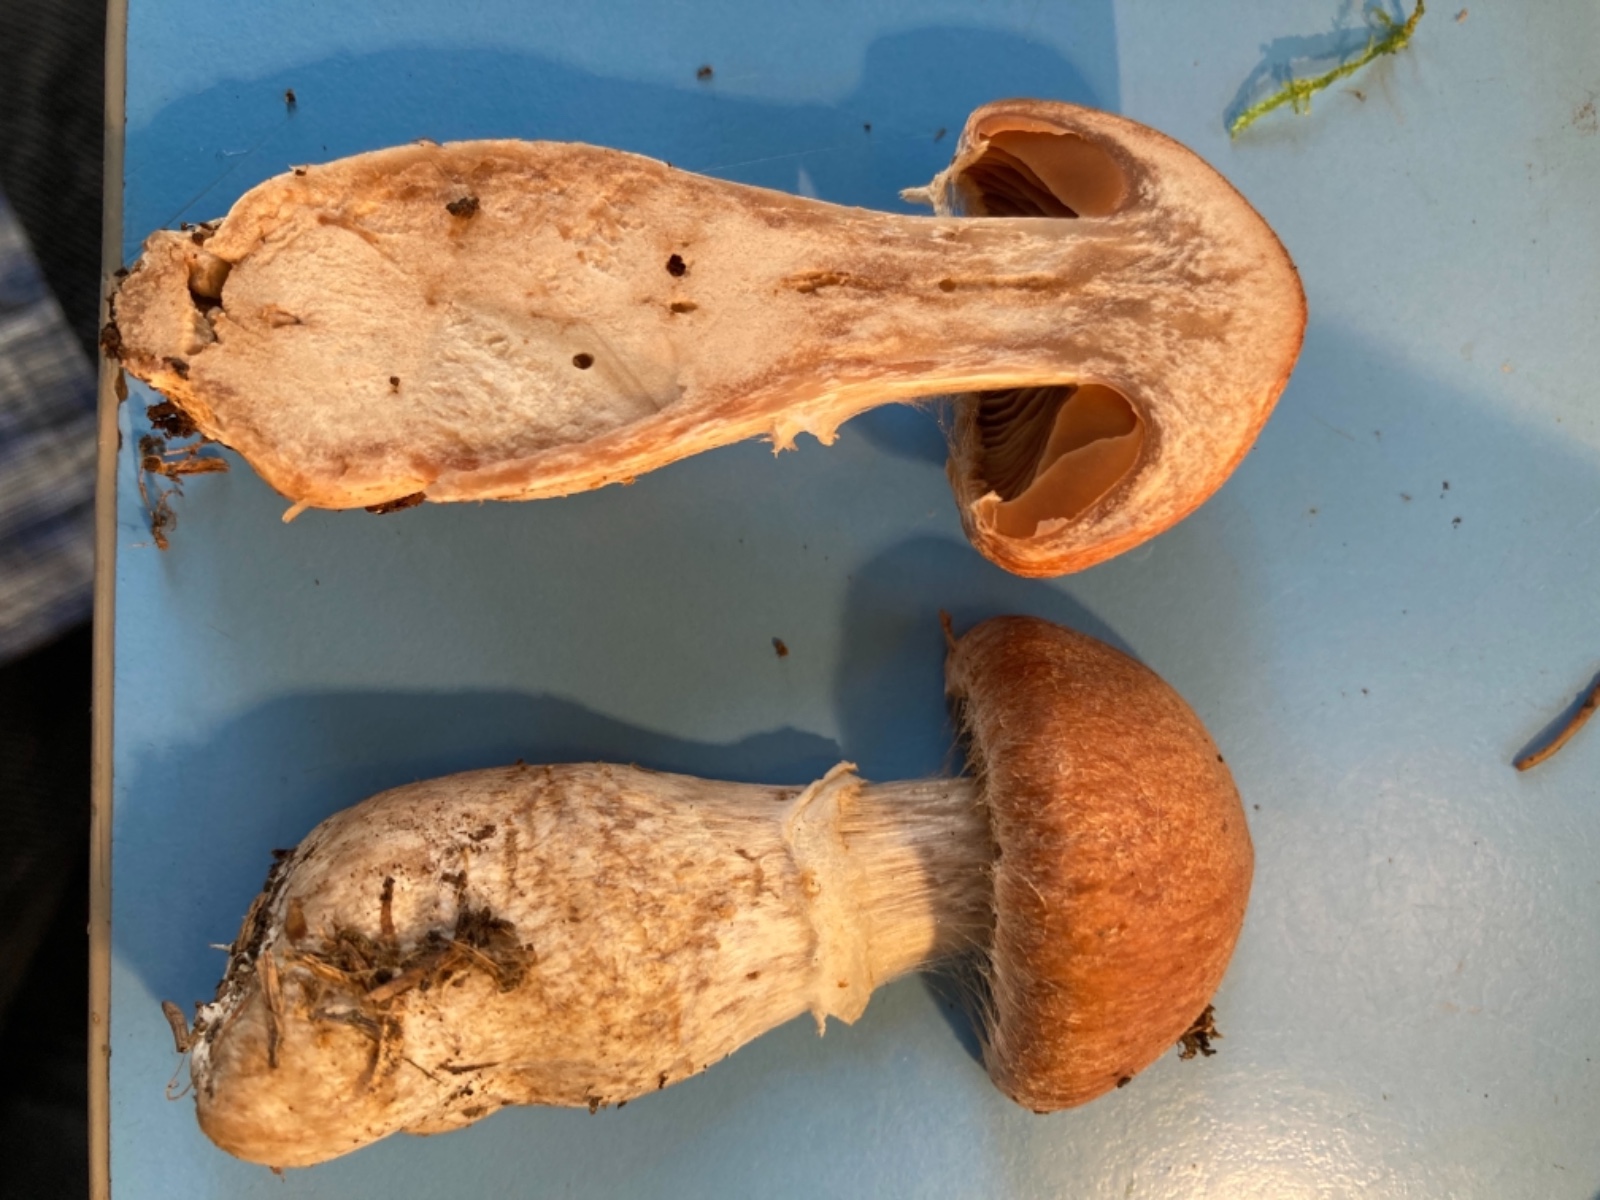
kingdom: Fungi
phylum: Basidiomycota
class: Agaricomycetes
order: Agaricales
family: Cortinariaceae
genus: Cortinarius
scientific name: Cortinarius laniger
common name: teglbladet slørhat
